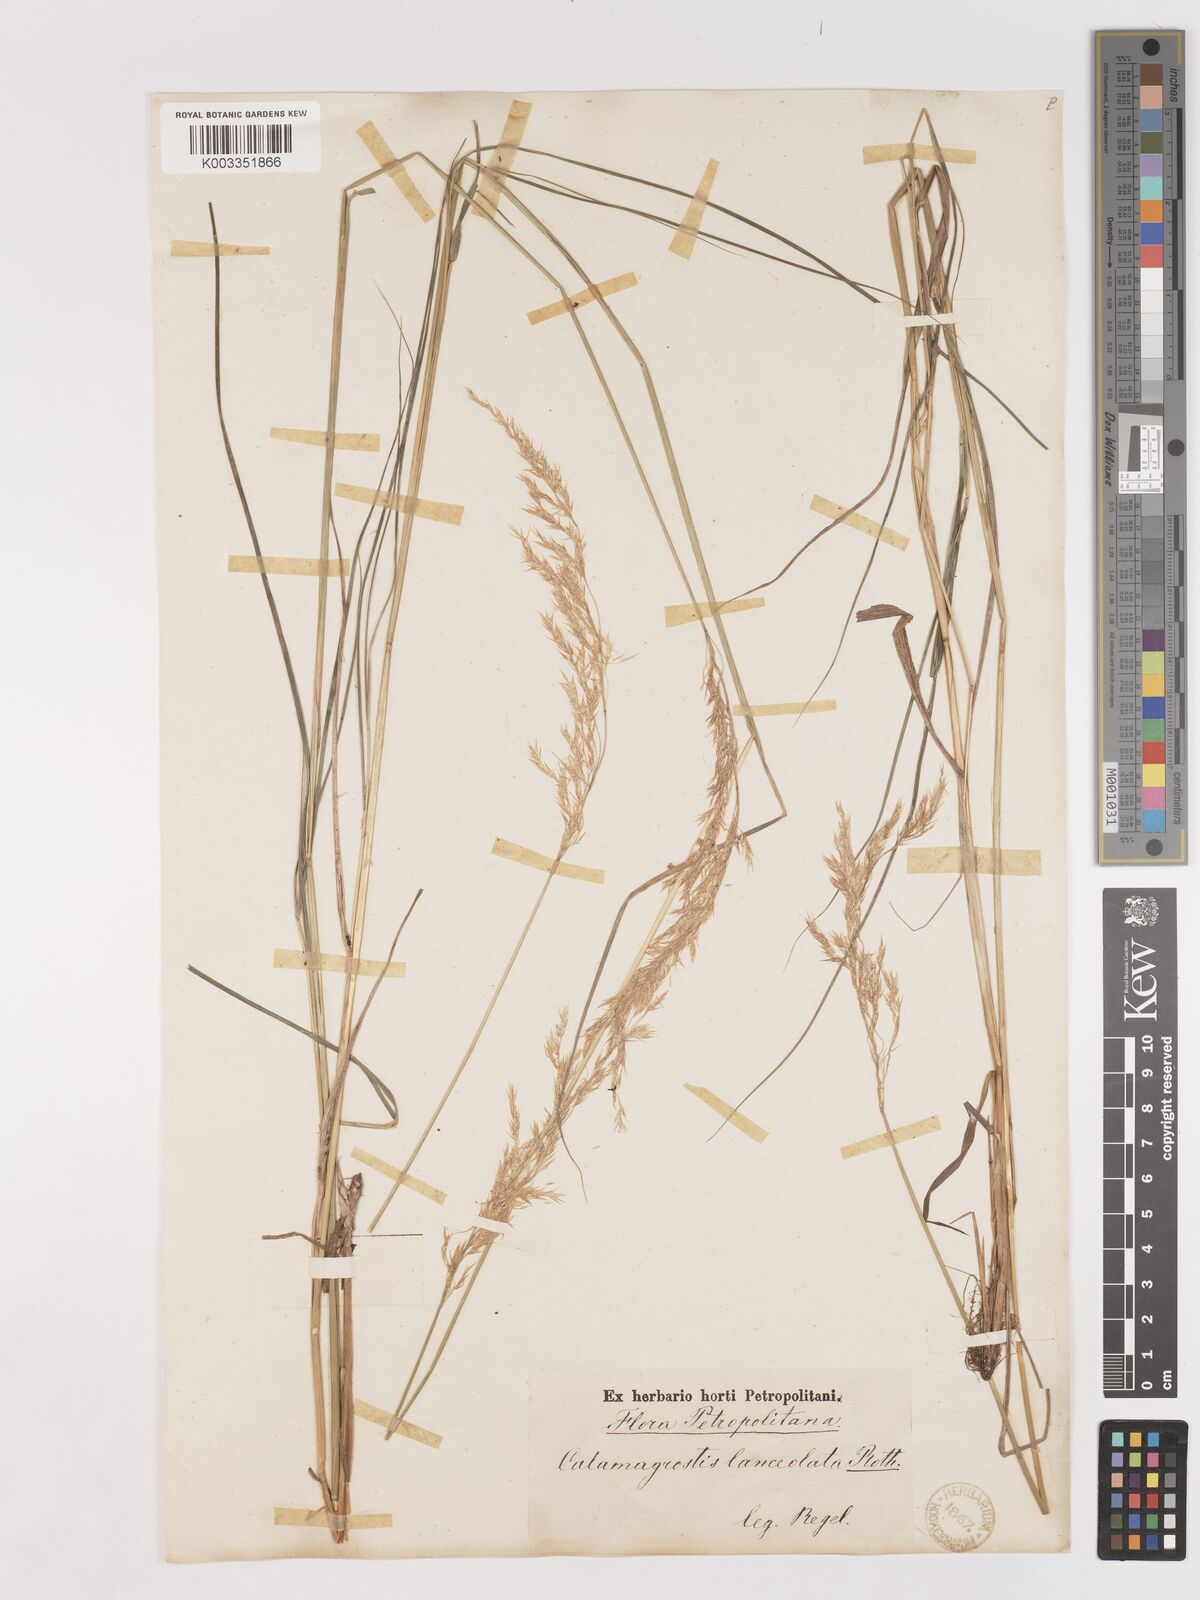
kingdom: Plantae
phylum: Tracheophyta
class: Liliopsida
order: Poales
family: Poaceae
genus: Calamagrostis
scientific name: Calamagrostis canescens
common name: Purple small-reed
